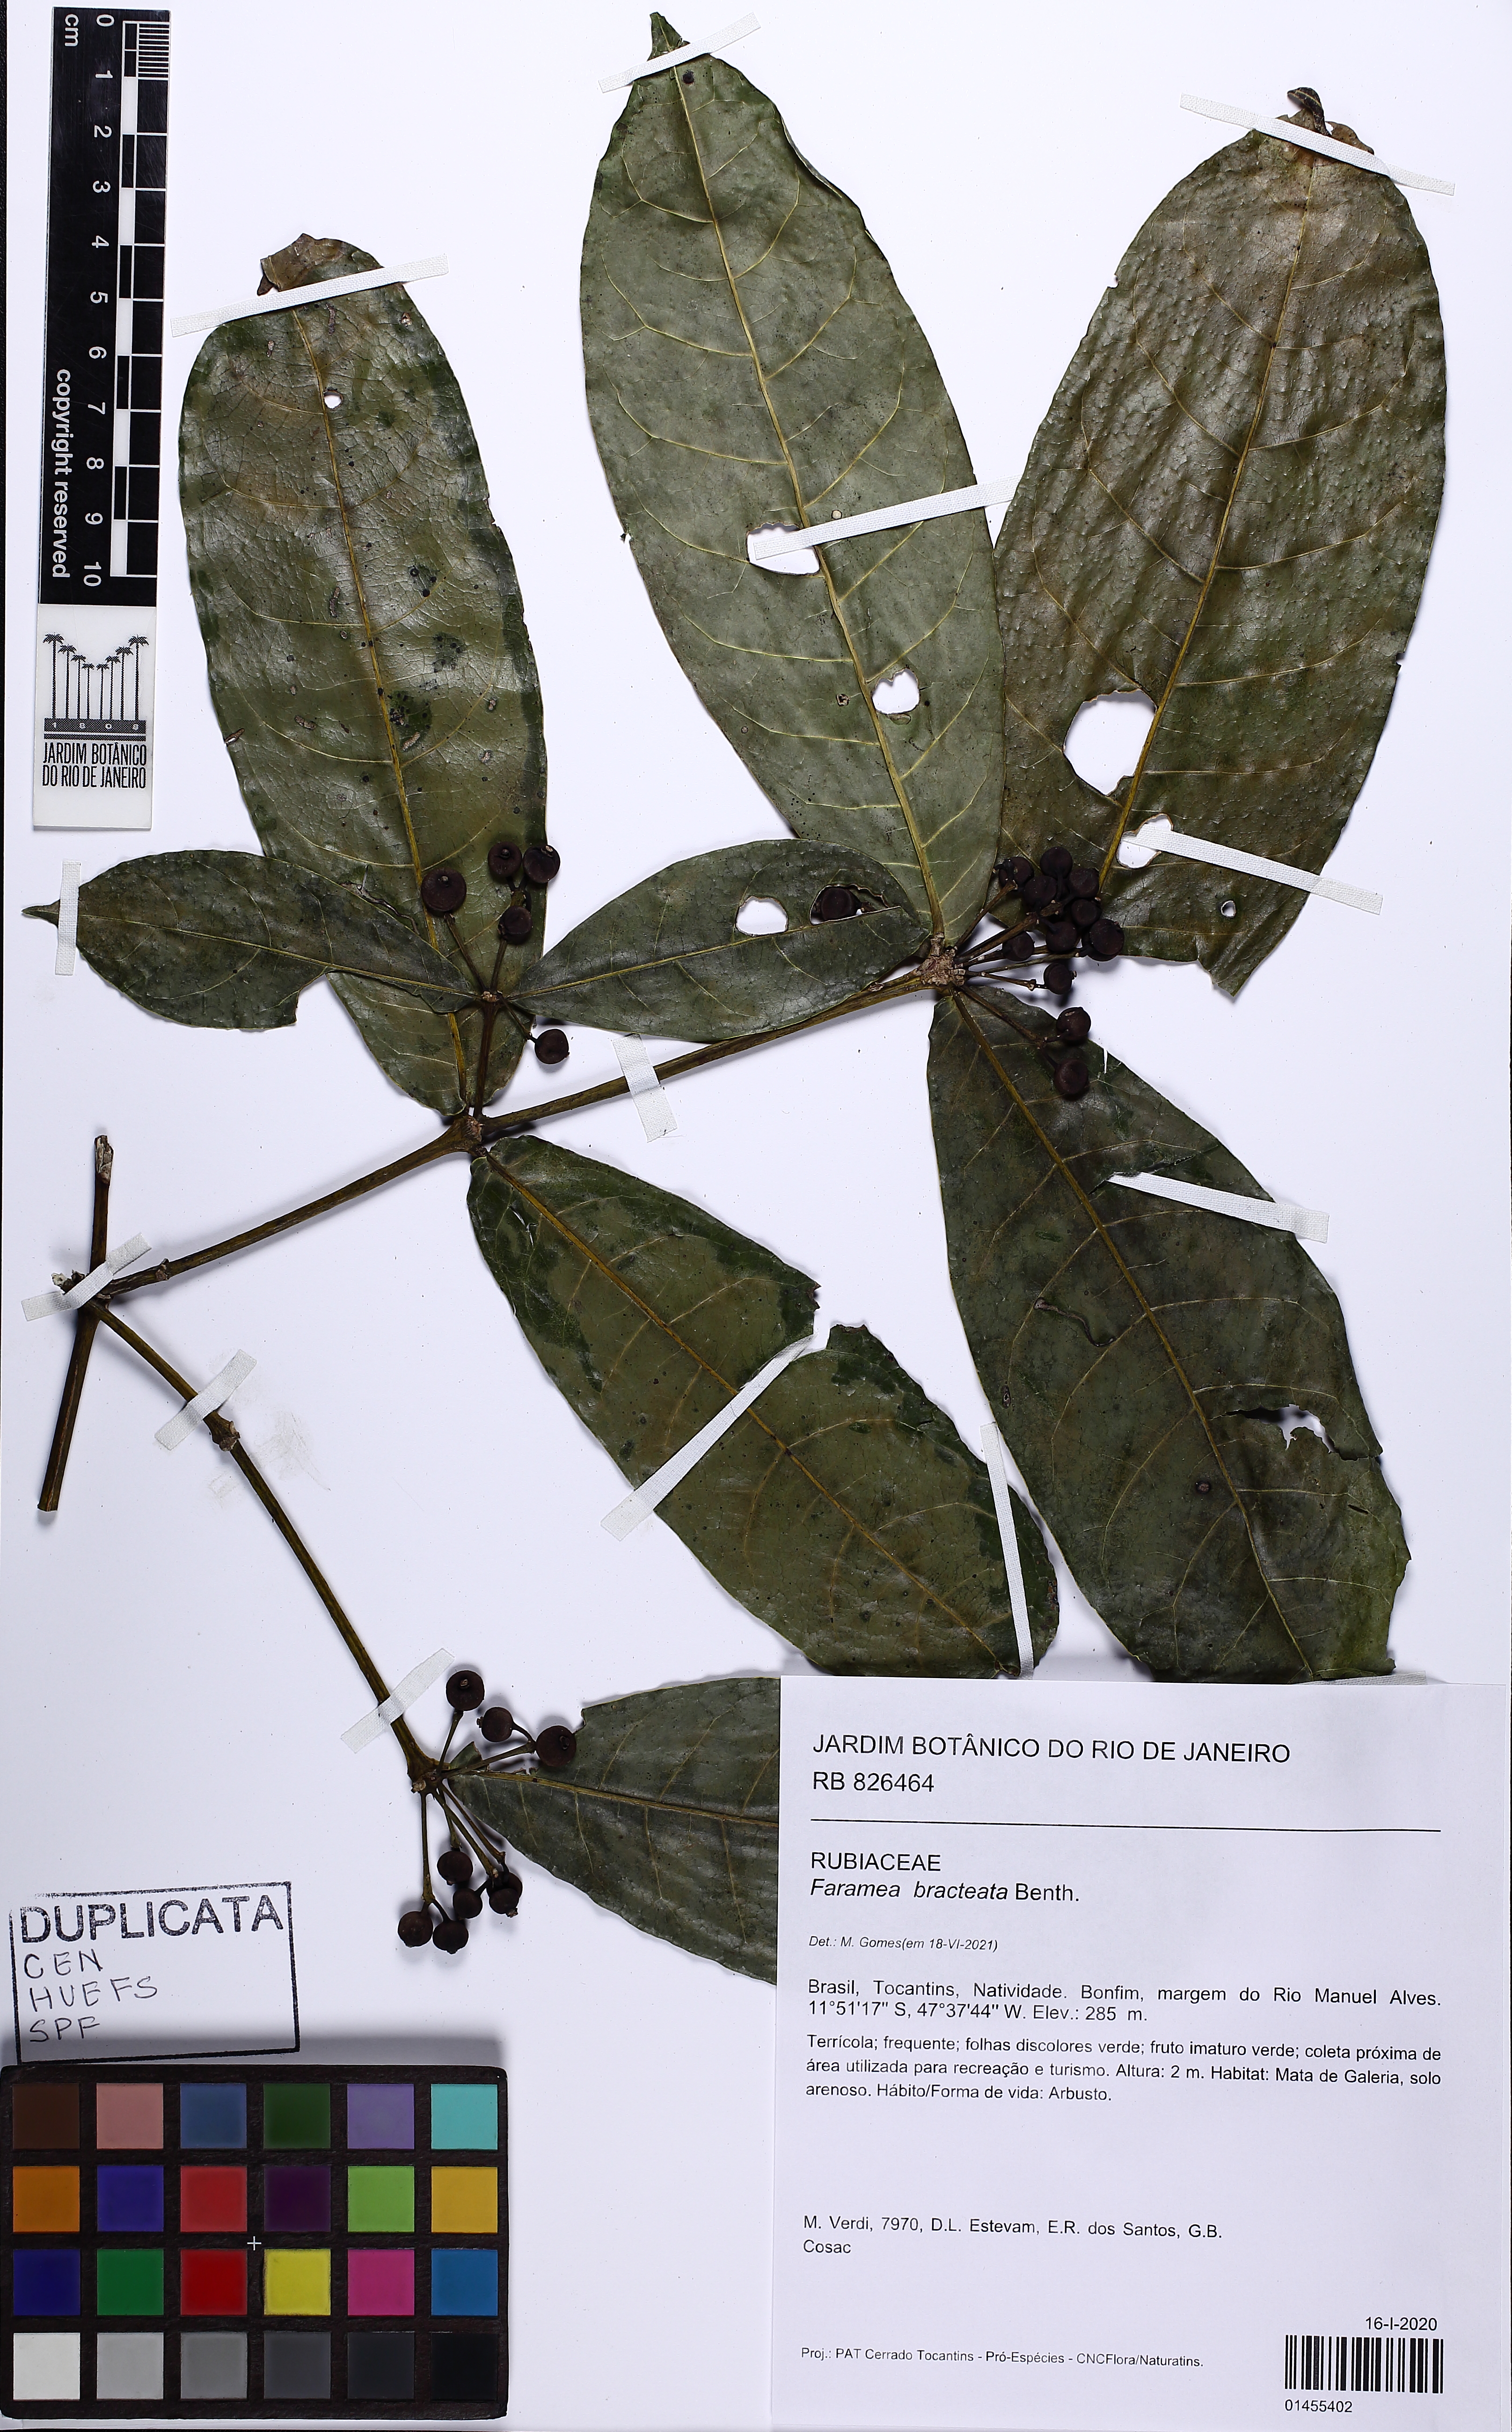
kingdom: Plantae
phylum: Tracheophyta
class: Magnoliopsida
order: Gentianales
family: Rubiaceae
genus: Faramea
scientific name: Faramea bracteata
